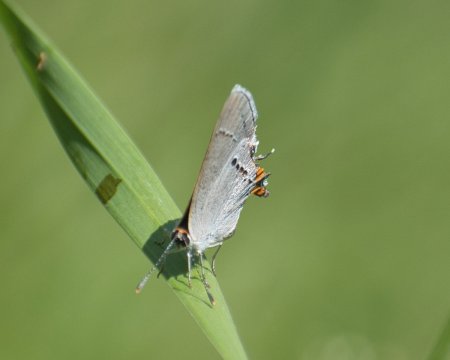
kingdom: Animalia
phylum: Arthropoda
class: Insecta
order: Lepidoptera
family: Lycaenidae
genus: Strymon
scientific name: Strymon melinus
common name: Gray Hairstreak
